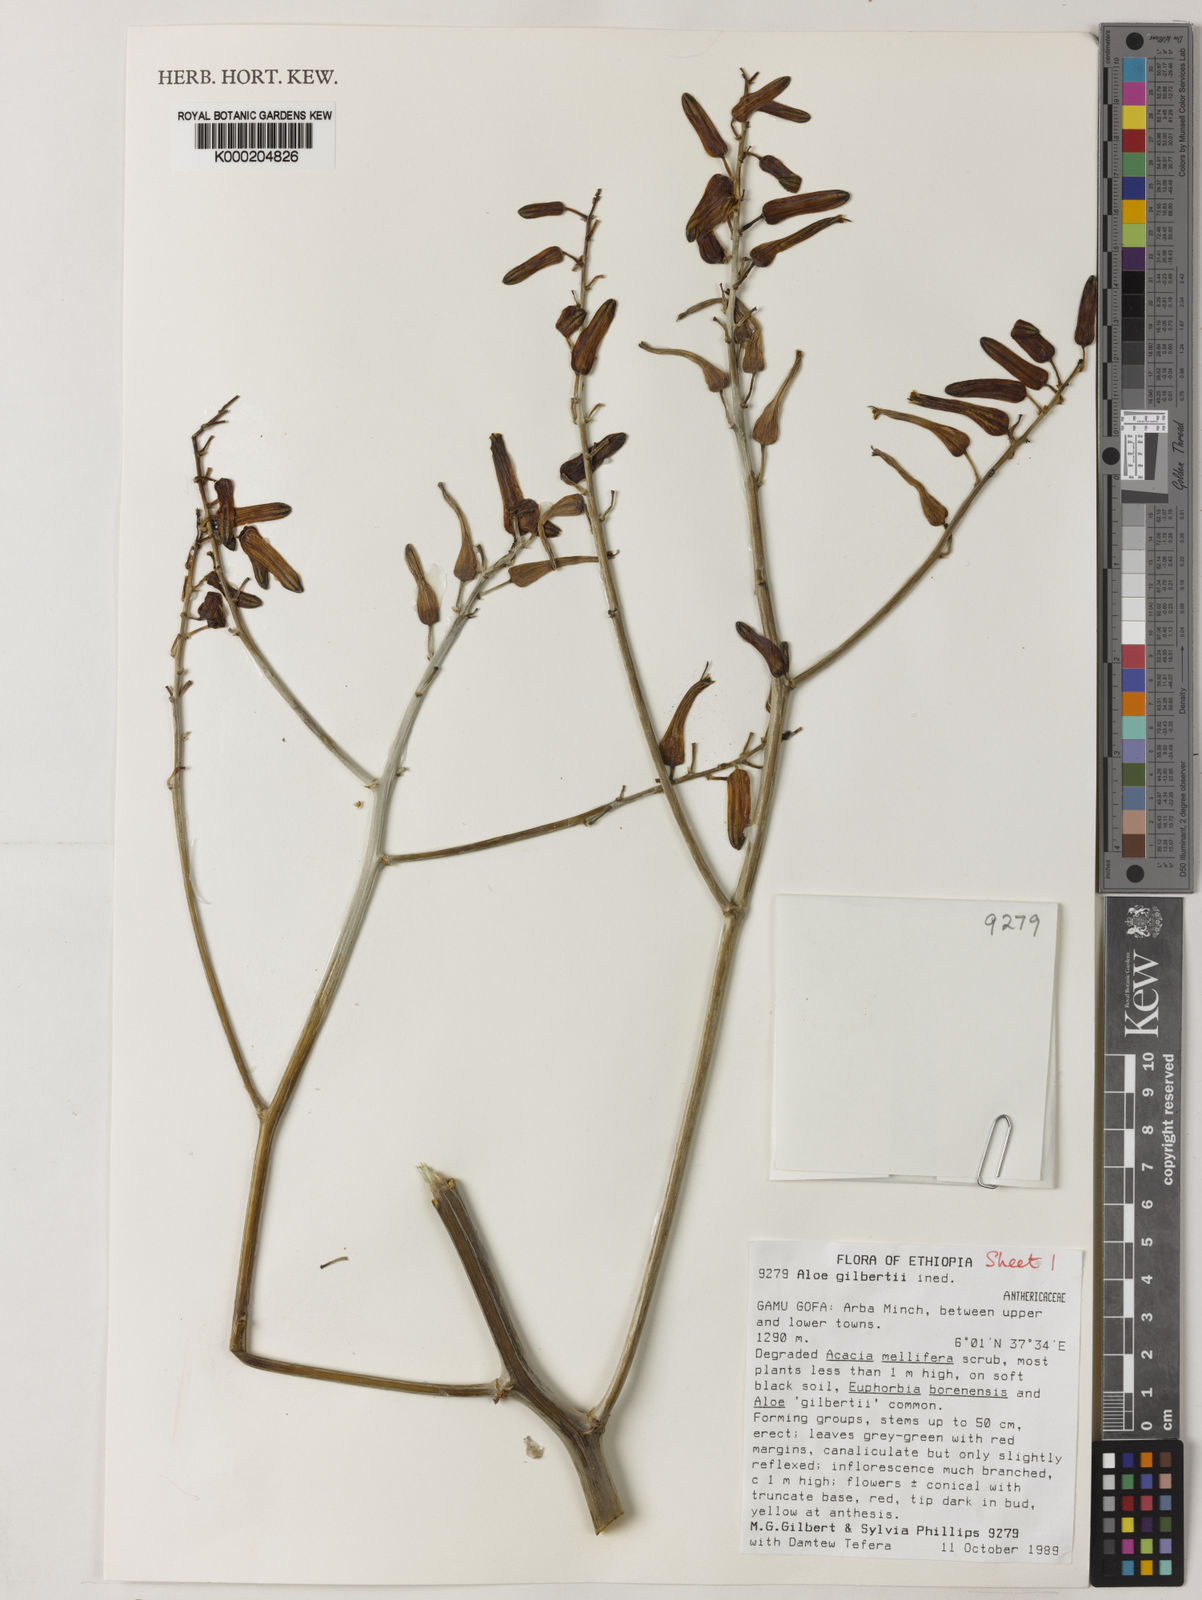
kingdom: Plantae
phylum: Tracheophyta
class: Liliopsida
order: Asparagales
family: Asphodelaceae
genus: Aloe
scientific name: Aloe gilbertii
